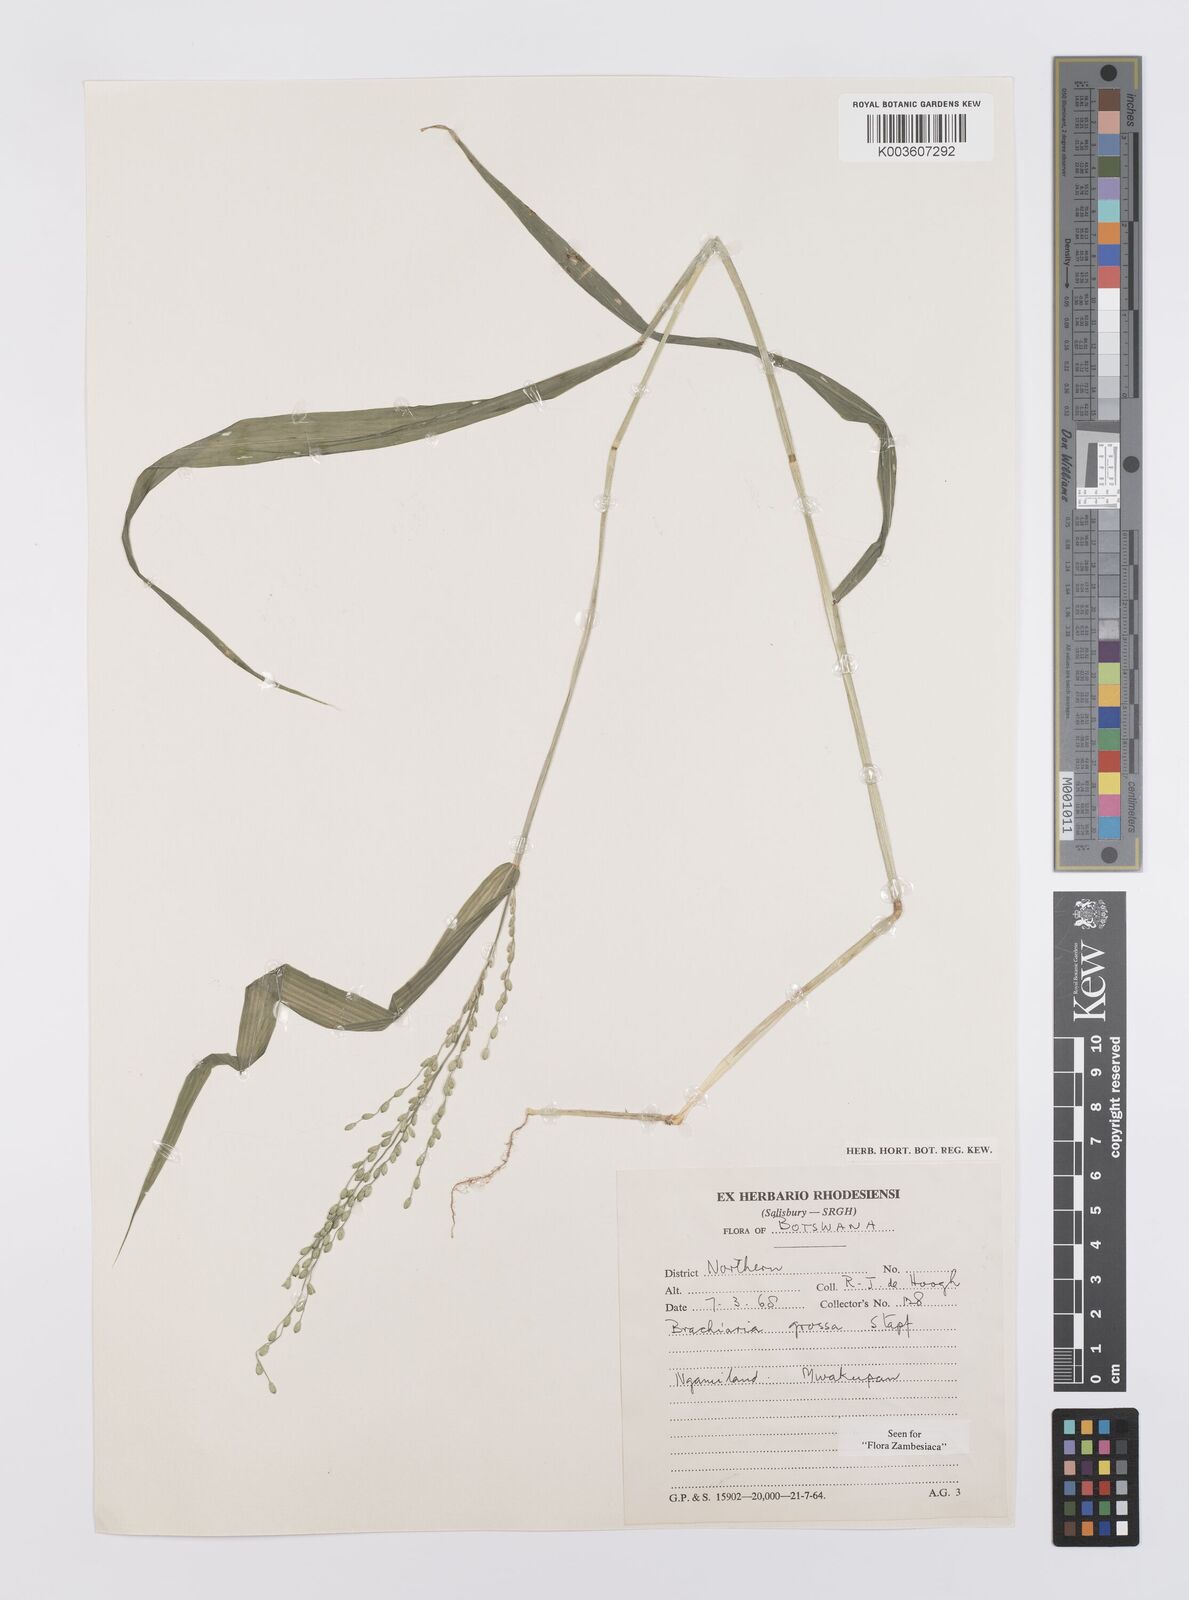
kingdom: Plantae
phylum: Tracheophyta
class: Liliopsida
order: Poales
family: Poaceae
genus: Urochloa
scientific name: Urochloa Brachiaria grossa
